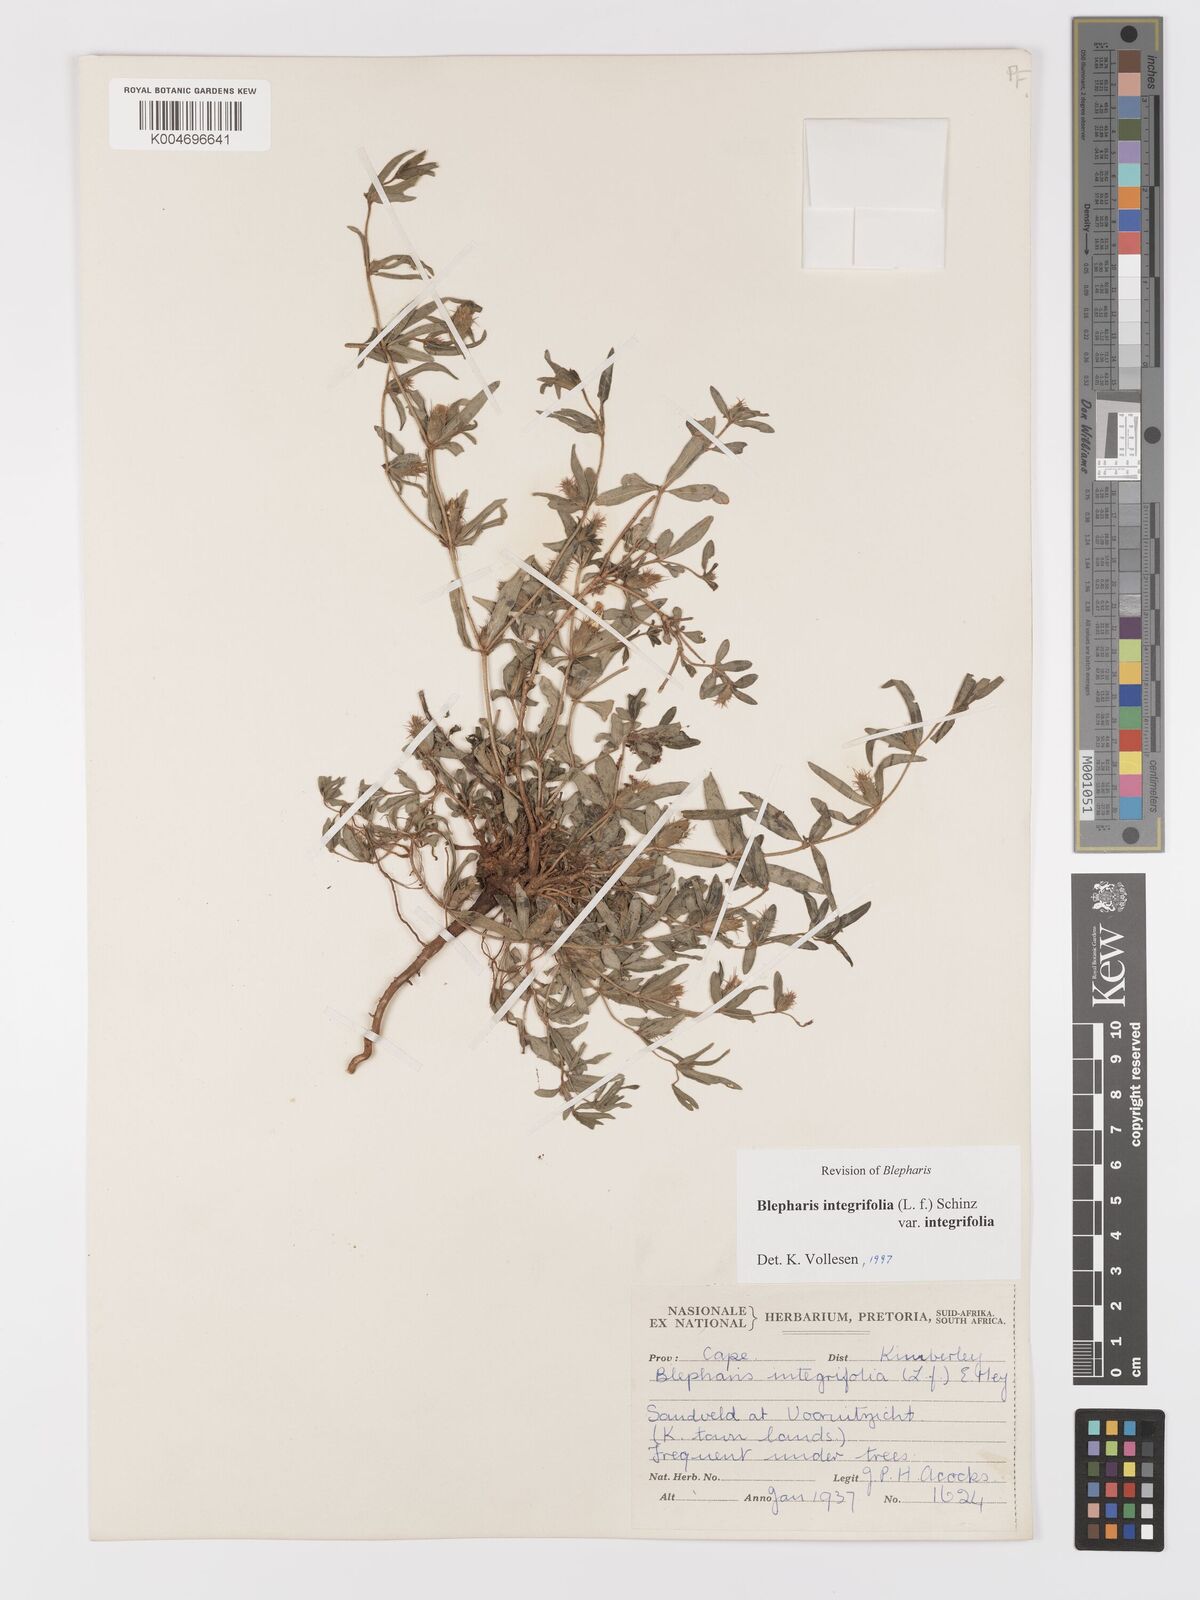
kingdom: Plantae
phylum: Tracheophyta
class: Magnoliopsida
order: Lamiales
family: Acanthaceae
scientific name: Acanthaceae
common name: Acanthaceae
